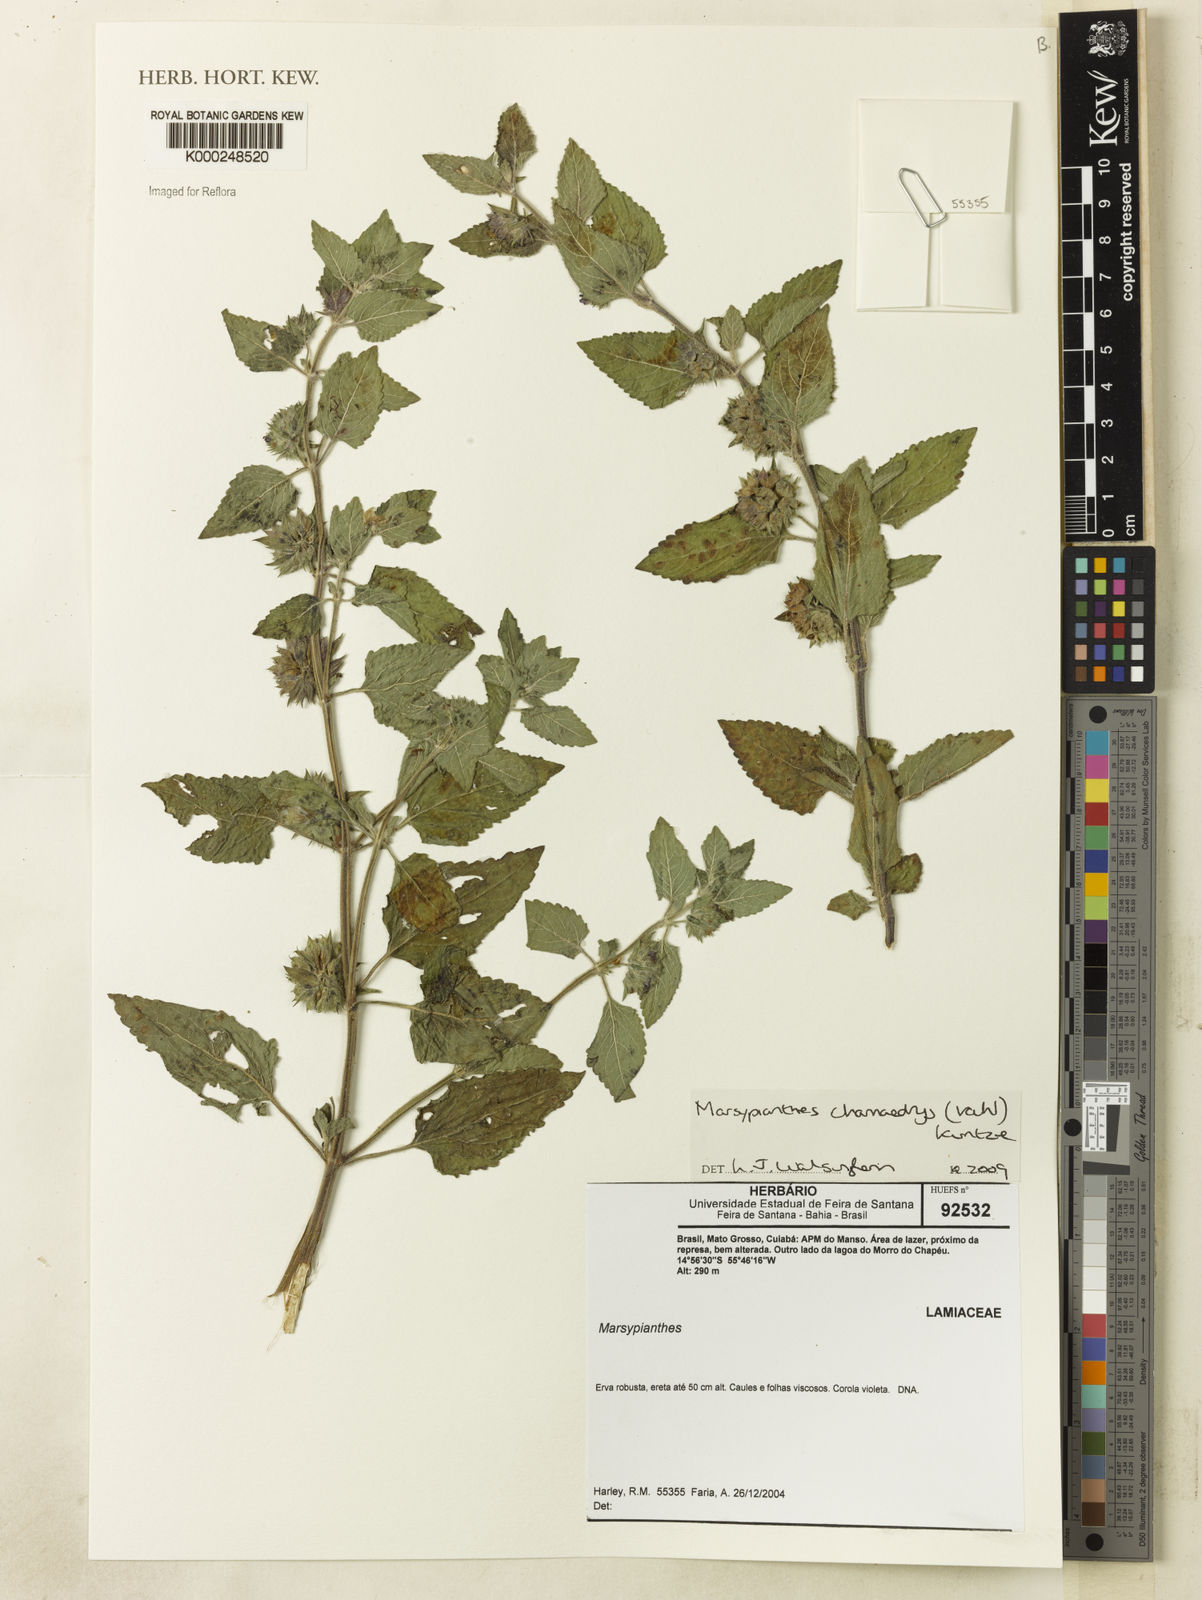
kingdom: Plantae
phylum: Tracheophyta
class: Magnoliopsida
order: Lamiales
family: Lamiaceae
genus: Marsypianthes
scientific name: Marsypianthes chamaedrys
